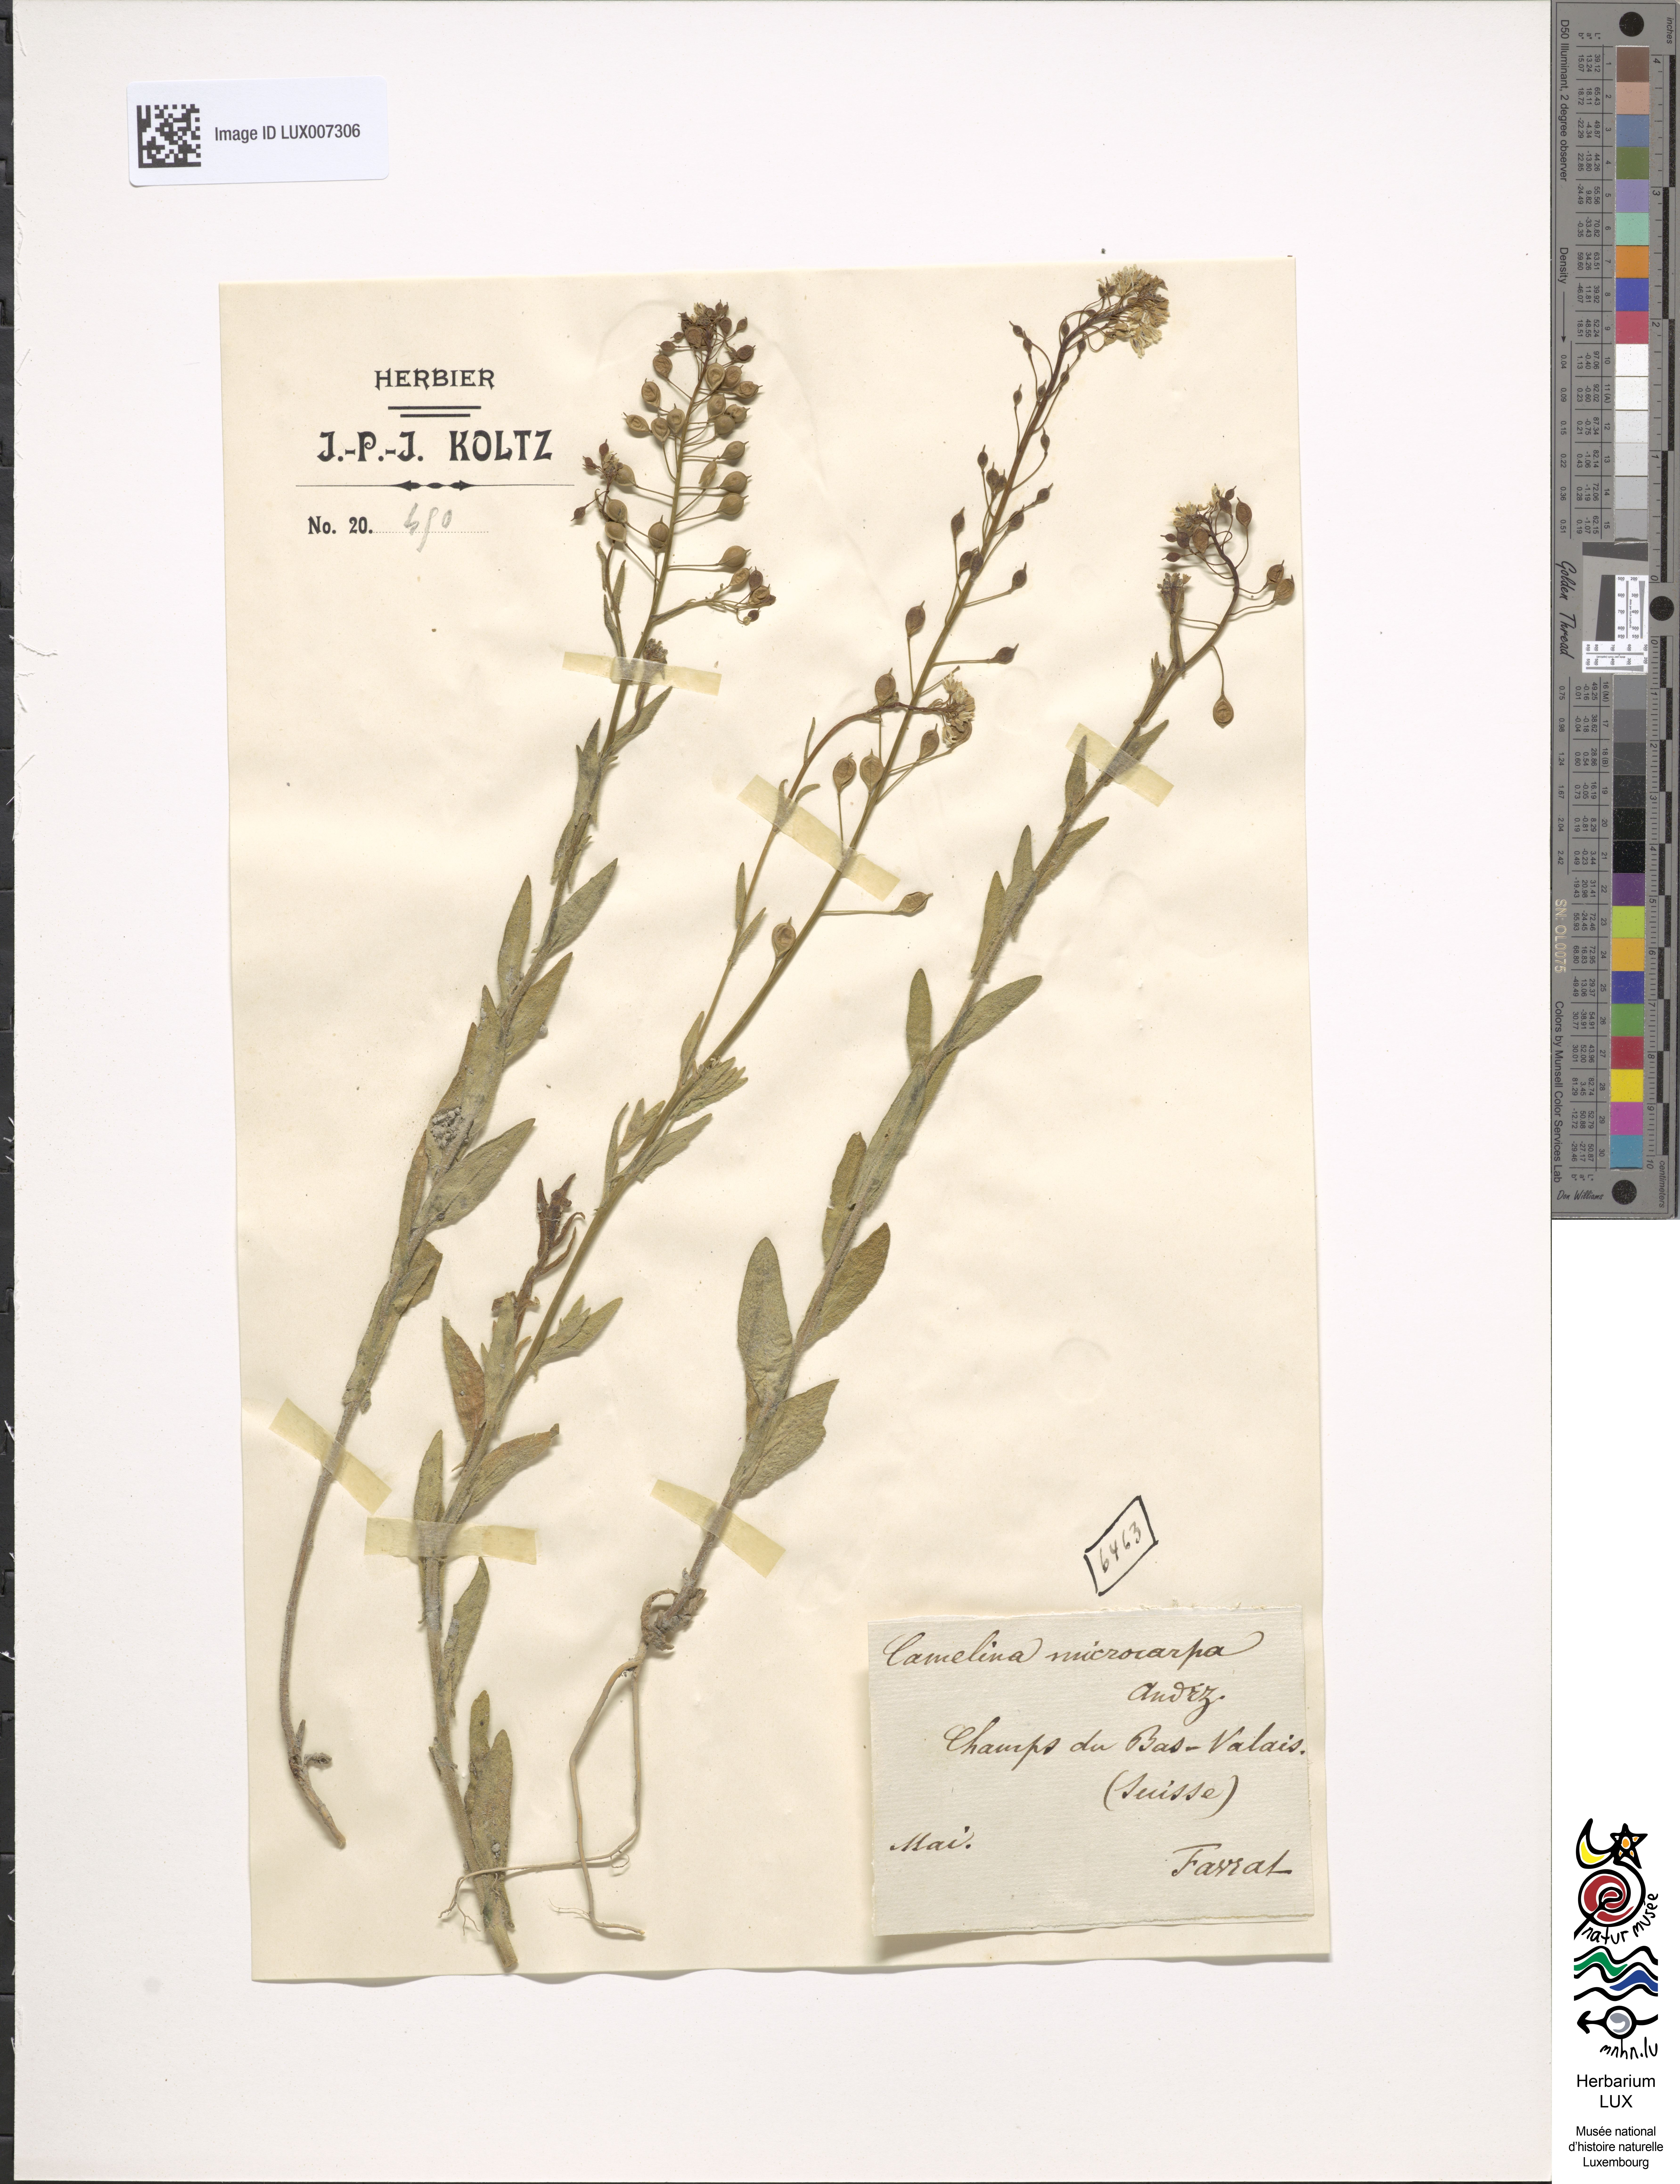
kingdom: Plantae
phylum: Tracheophyta
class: Magnoliopsida
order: Brassicales
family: Brassicaceae
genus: Camelina
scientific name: Camelina microcarpa
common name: Lesser gold-of-pleasure
